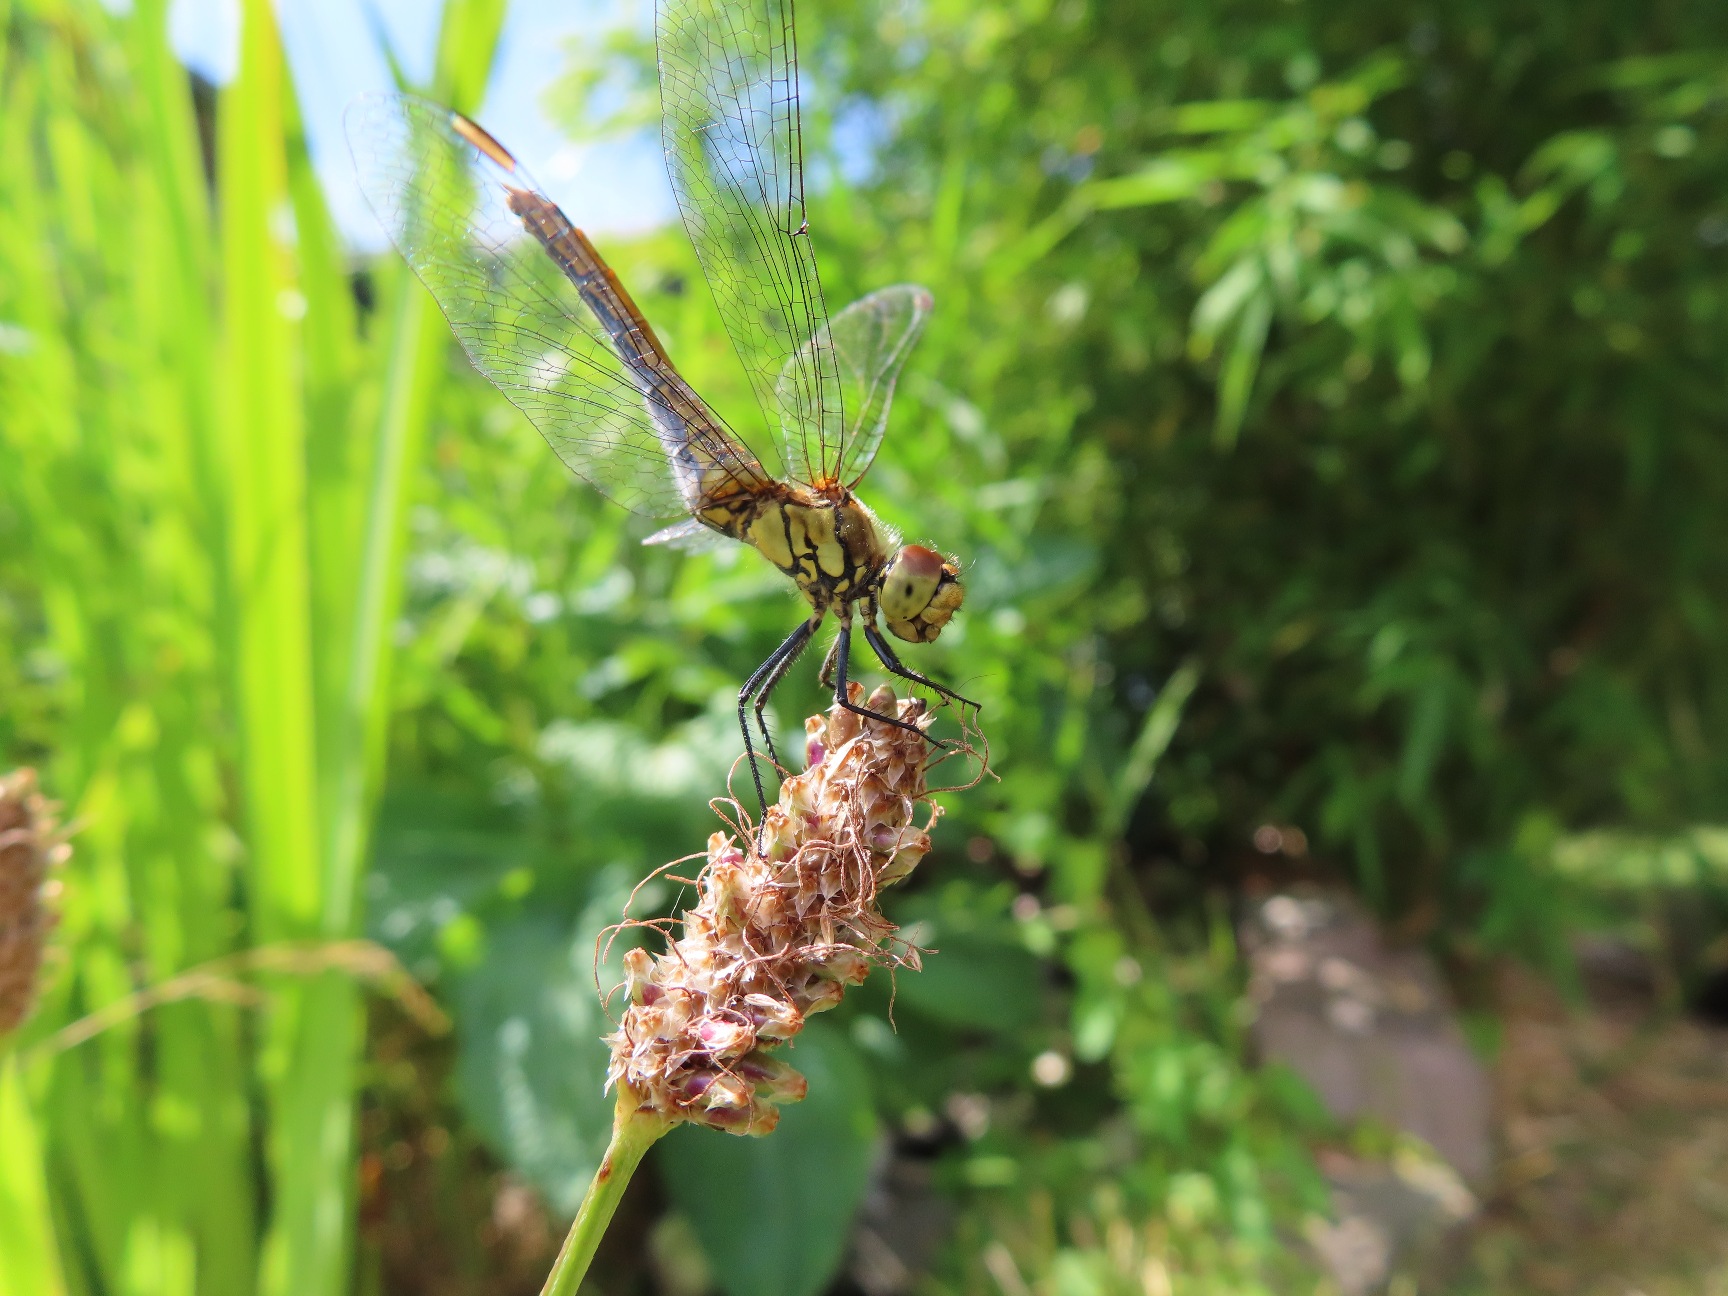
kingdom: Animalia
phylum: Arthropoda
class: Insecta
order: Odonata
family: Libellulidae
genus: Sympetrum
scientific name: Sympetrum sanguineum
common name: Blodrød hedelibel
